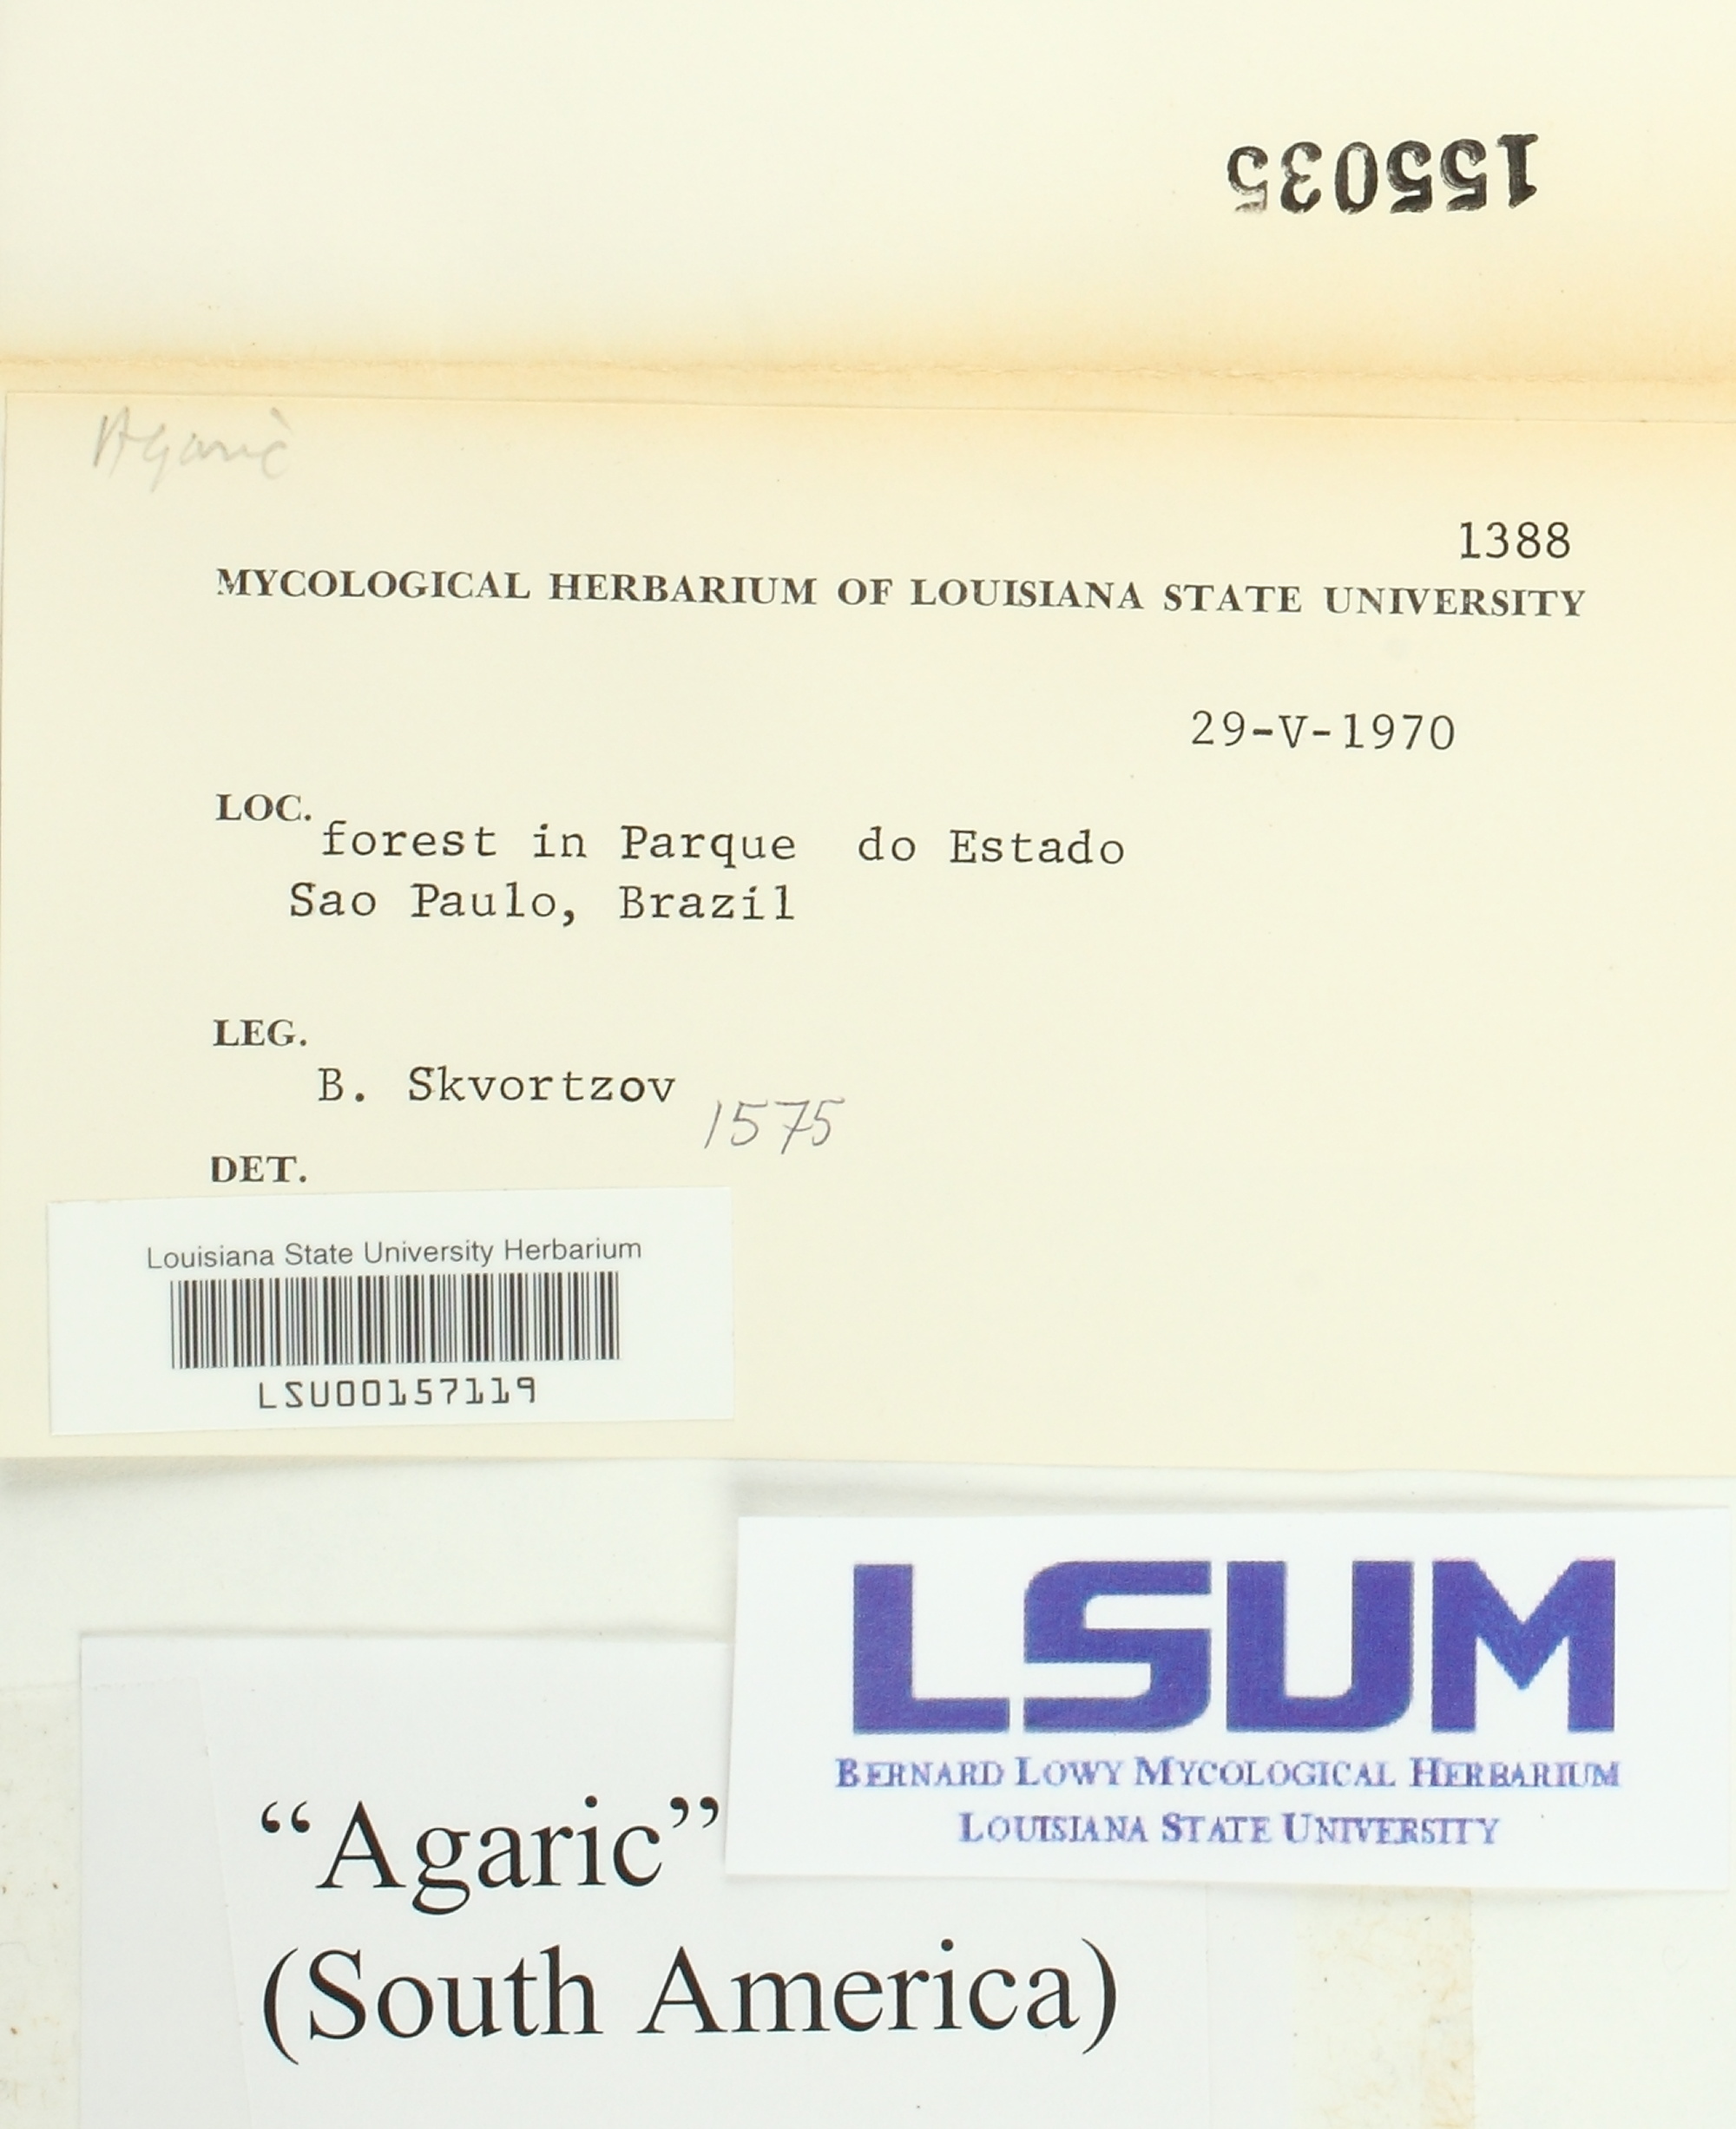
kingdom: Fungi
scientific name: Fungi
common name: Fungi
